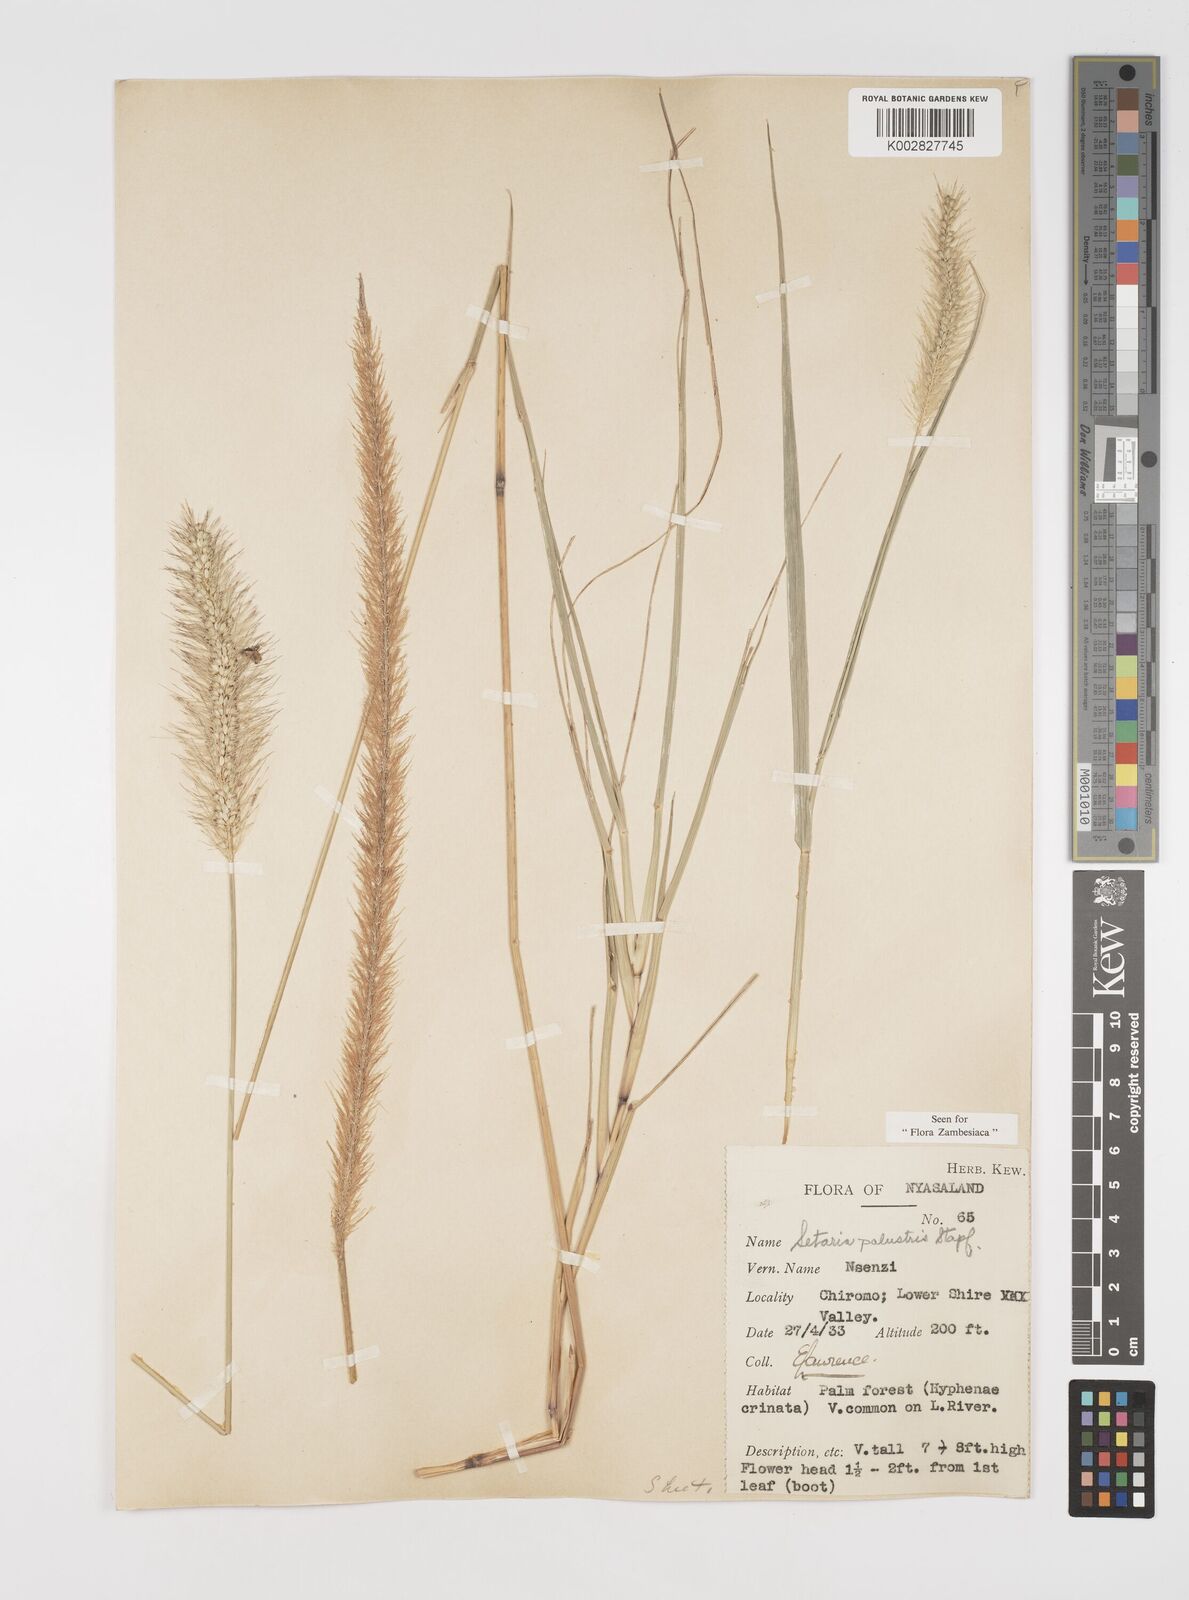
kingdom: Plantae
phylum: Tracheophyta
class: Liliopsida
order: Poales
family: Poaceae
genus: Setaria
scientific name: Setaria incrassata
